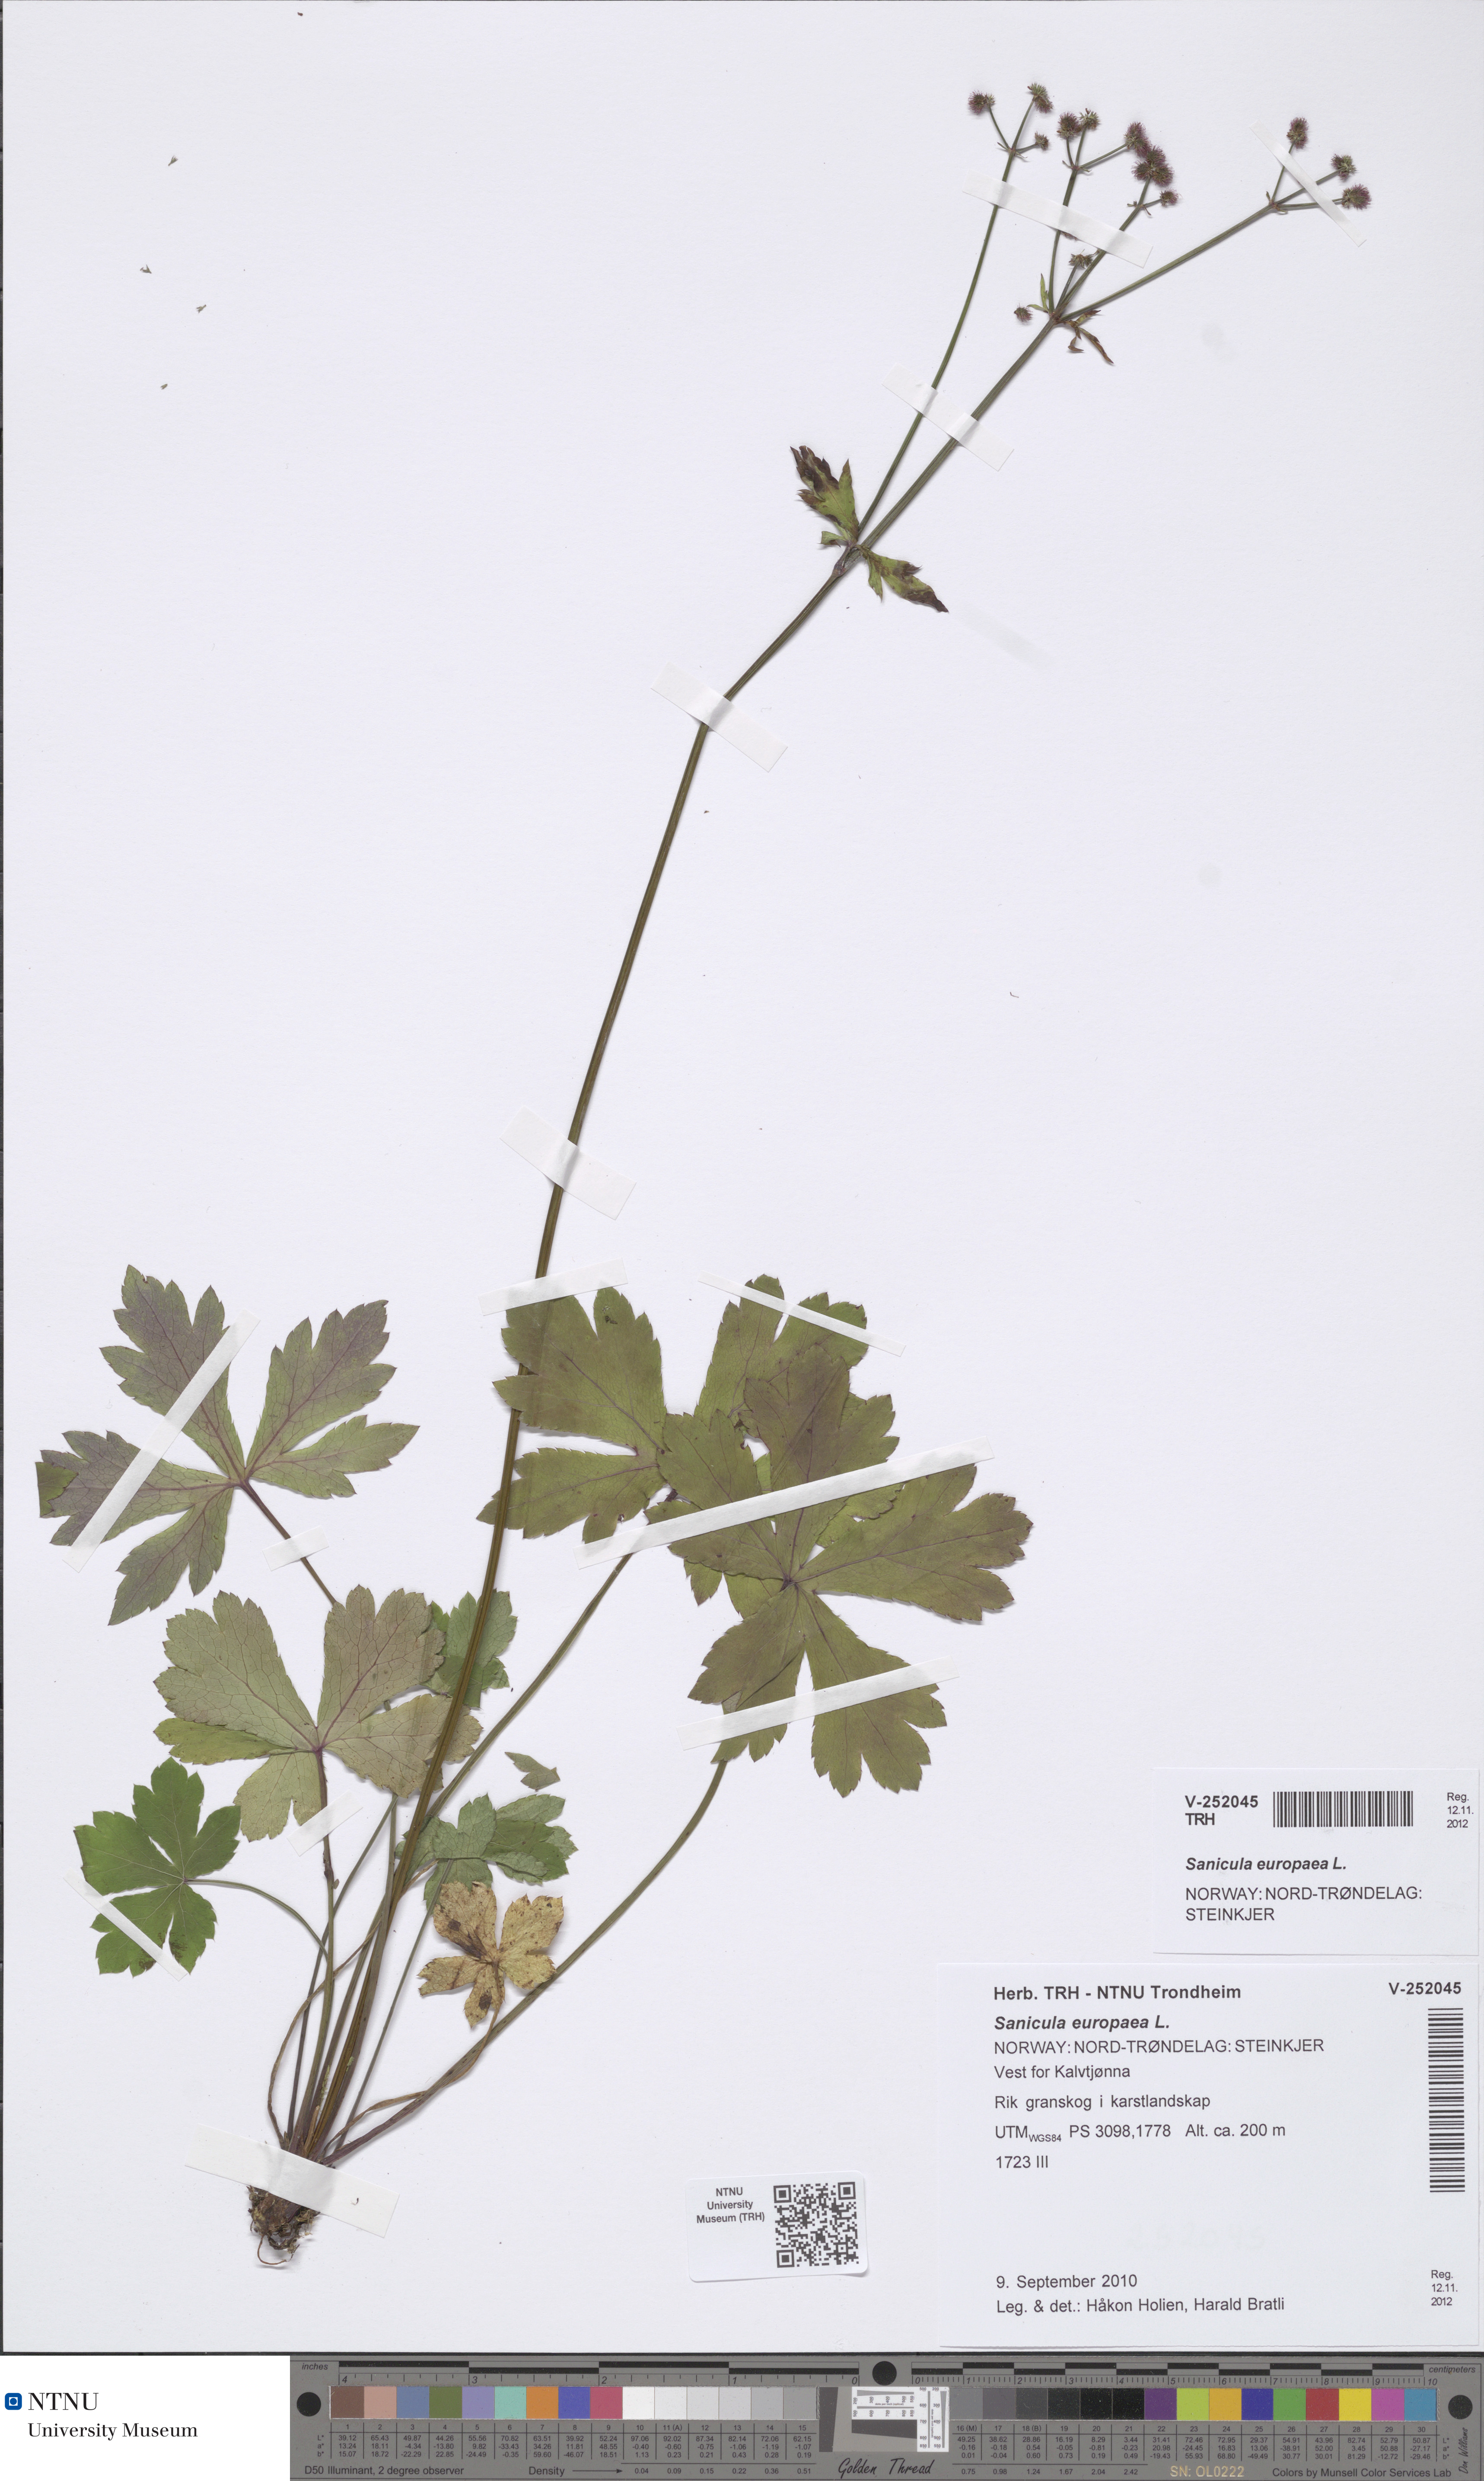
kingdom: Plantae
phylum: Tracheophyta
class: Magnoliopsida
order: Apiales
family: Apiaceae
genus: Sanicula
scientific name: Sanicula europaea
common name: Sanicle
